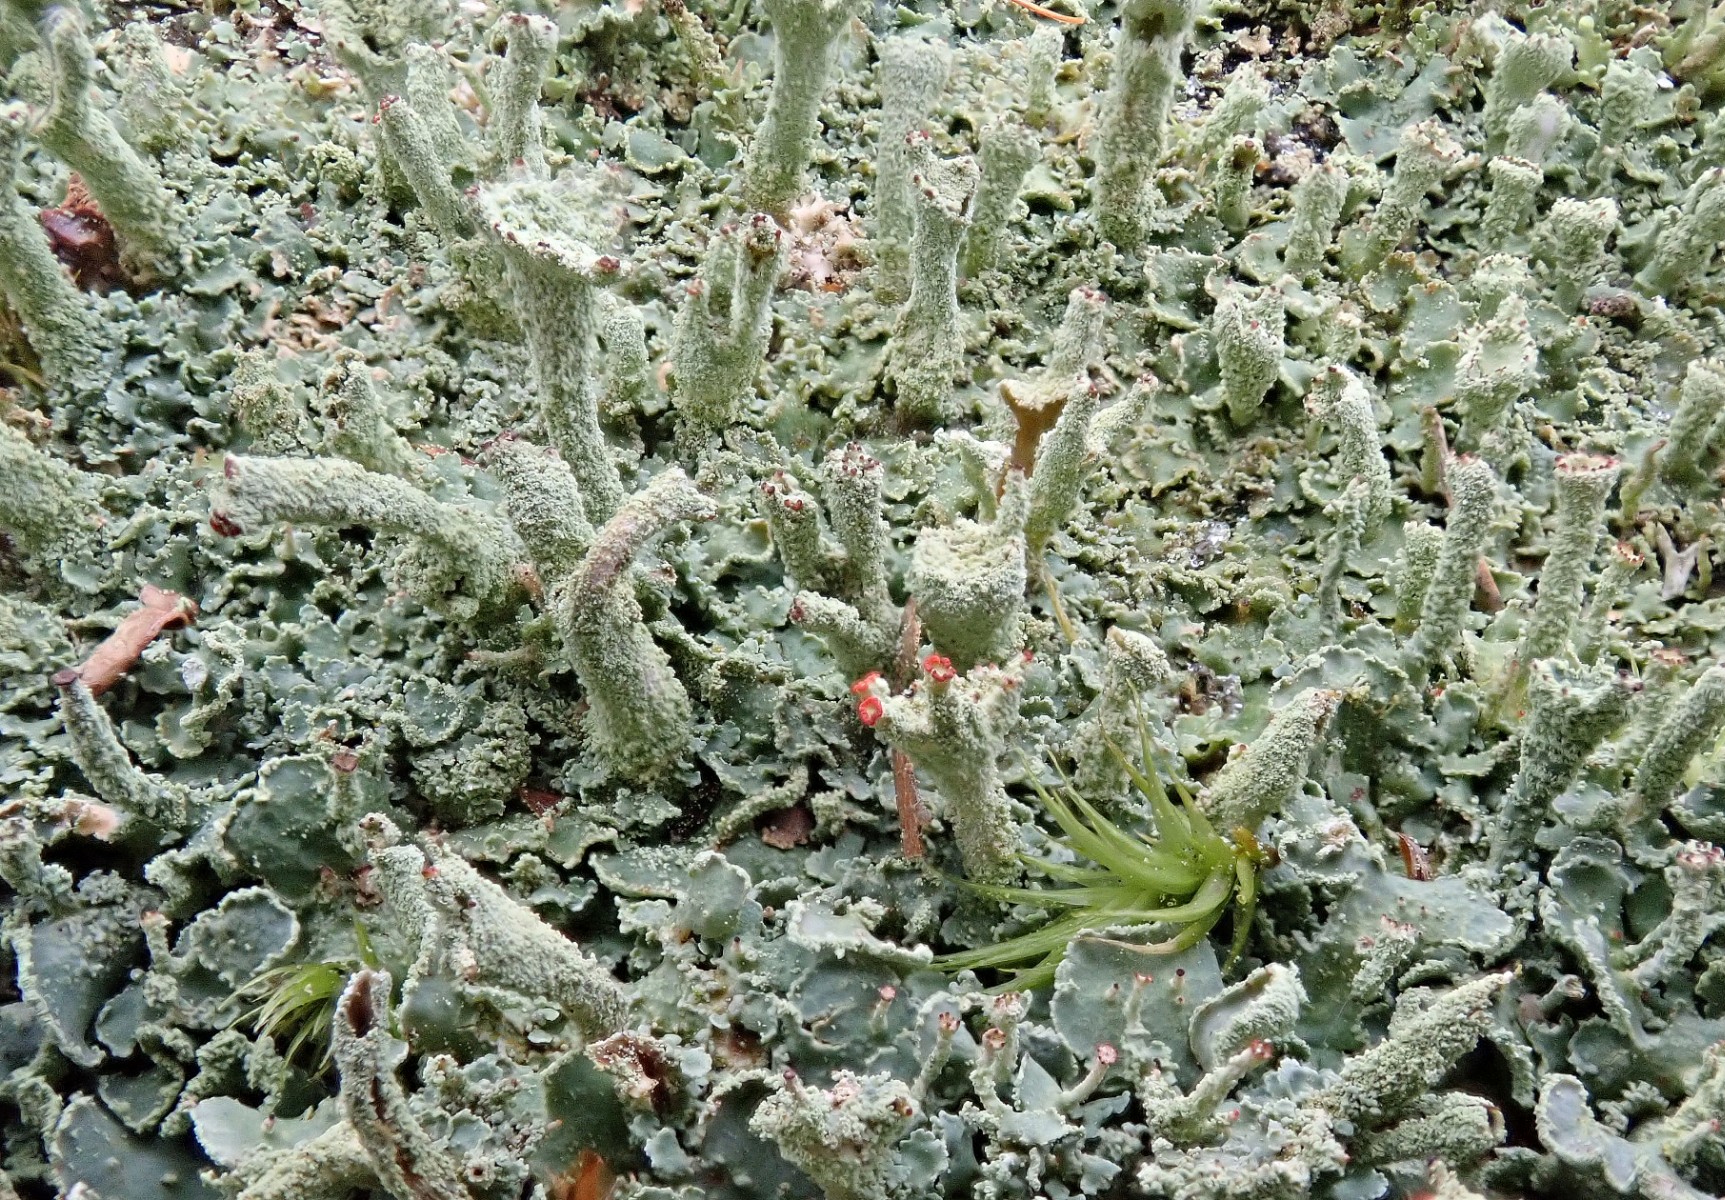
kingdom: Fungi
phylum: Ascomycota
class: Lecanoromycetes
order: Lecanorales
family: Cladoniaceae
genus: Cladonia
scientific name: Cladonia digitata
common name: finger-bægerlav
